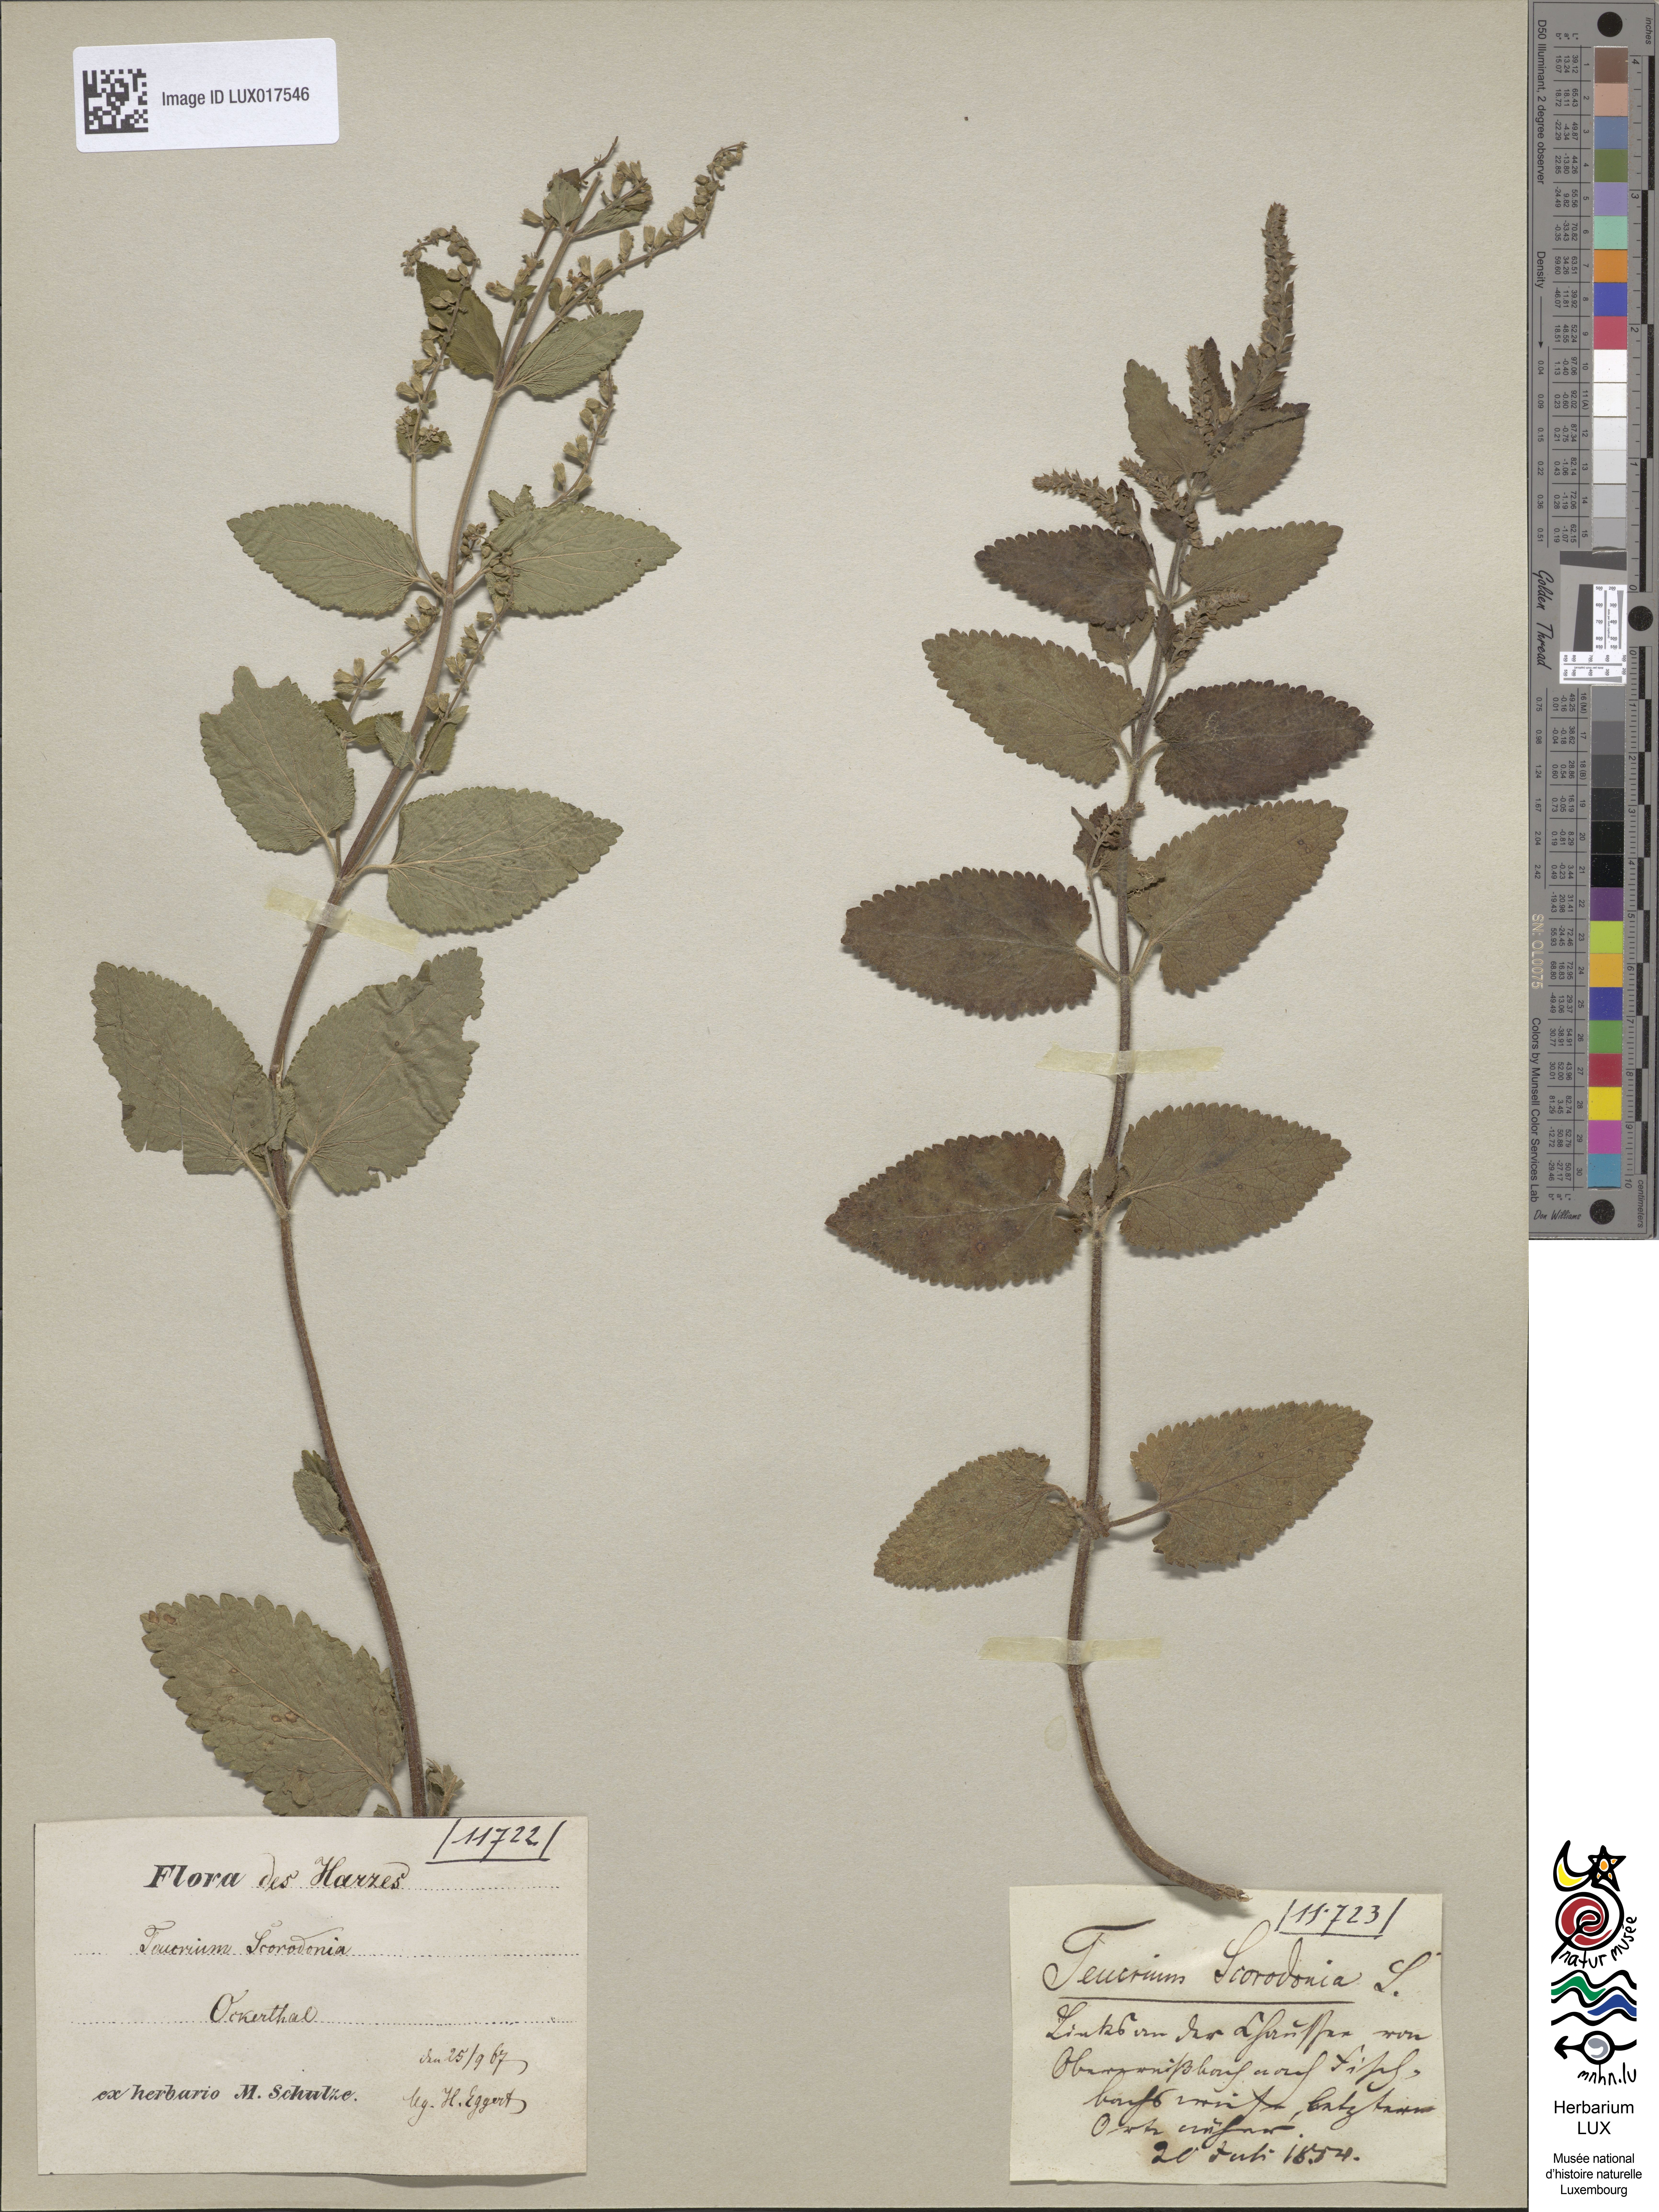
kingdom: Plantae
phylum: Tracheophyta
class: Magnoliopsida
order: Lamiales
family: Lamiaceae
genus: Teucrium
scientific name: Teucrium scorodonia
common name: Woodland germander
